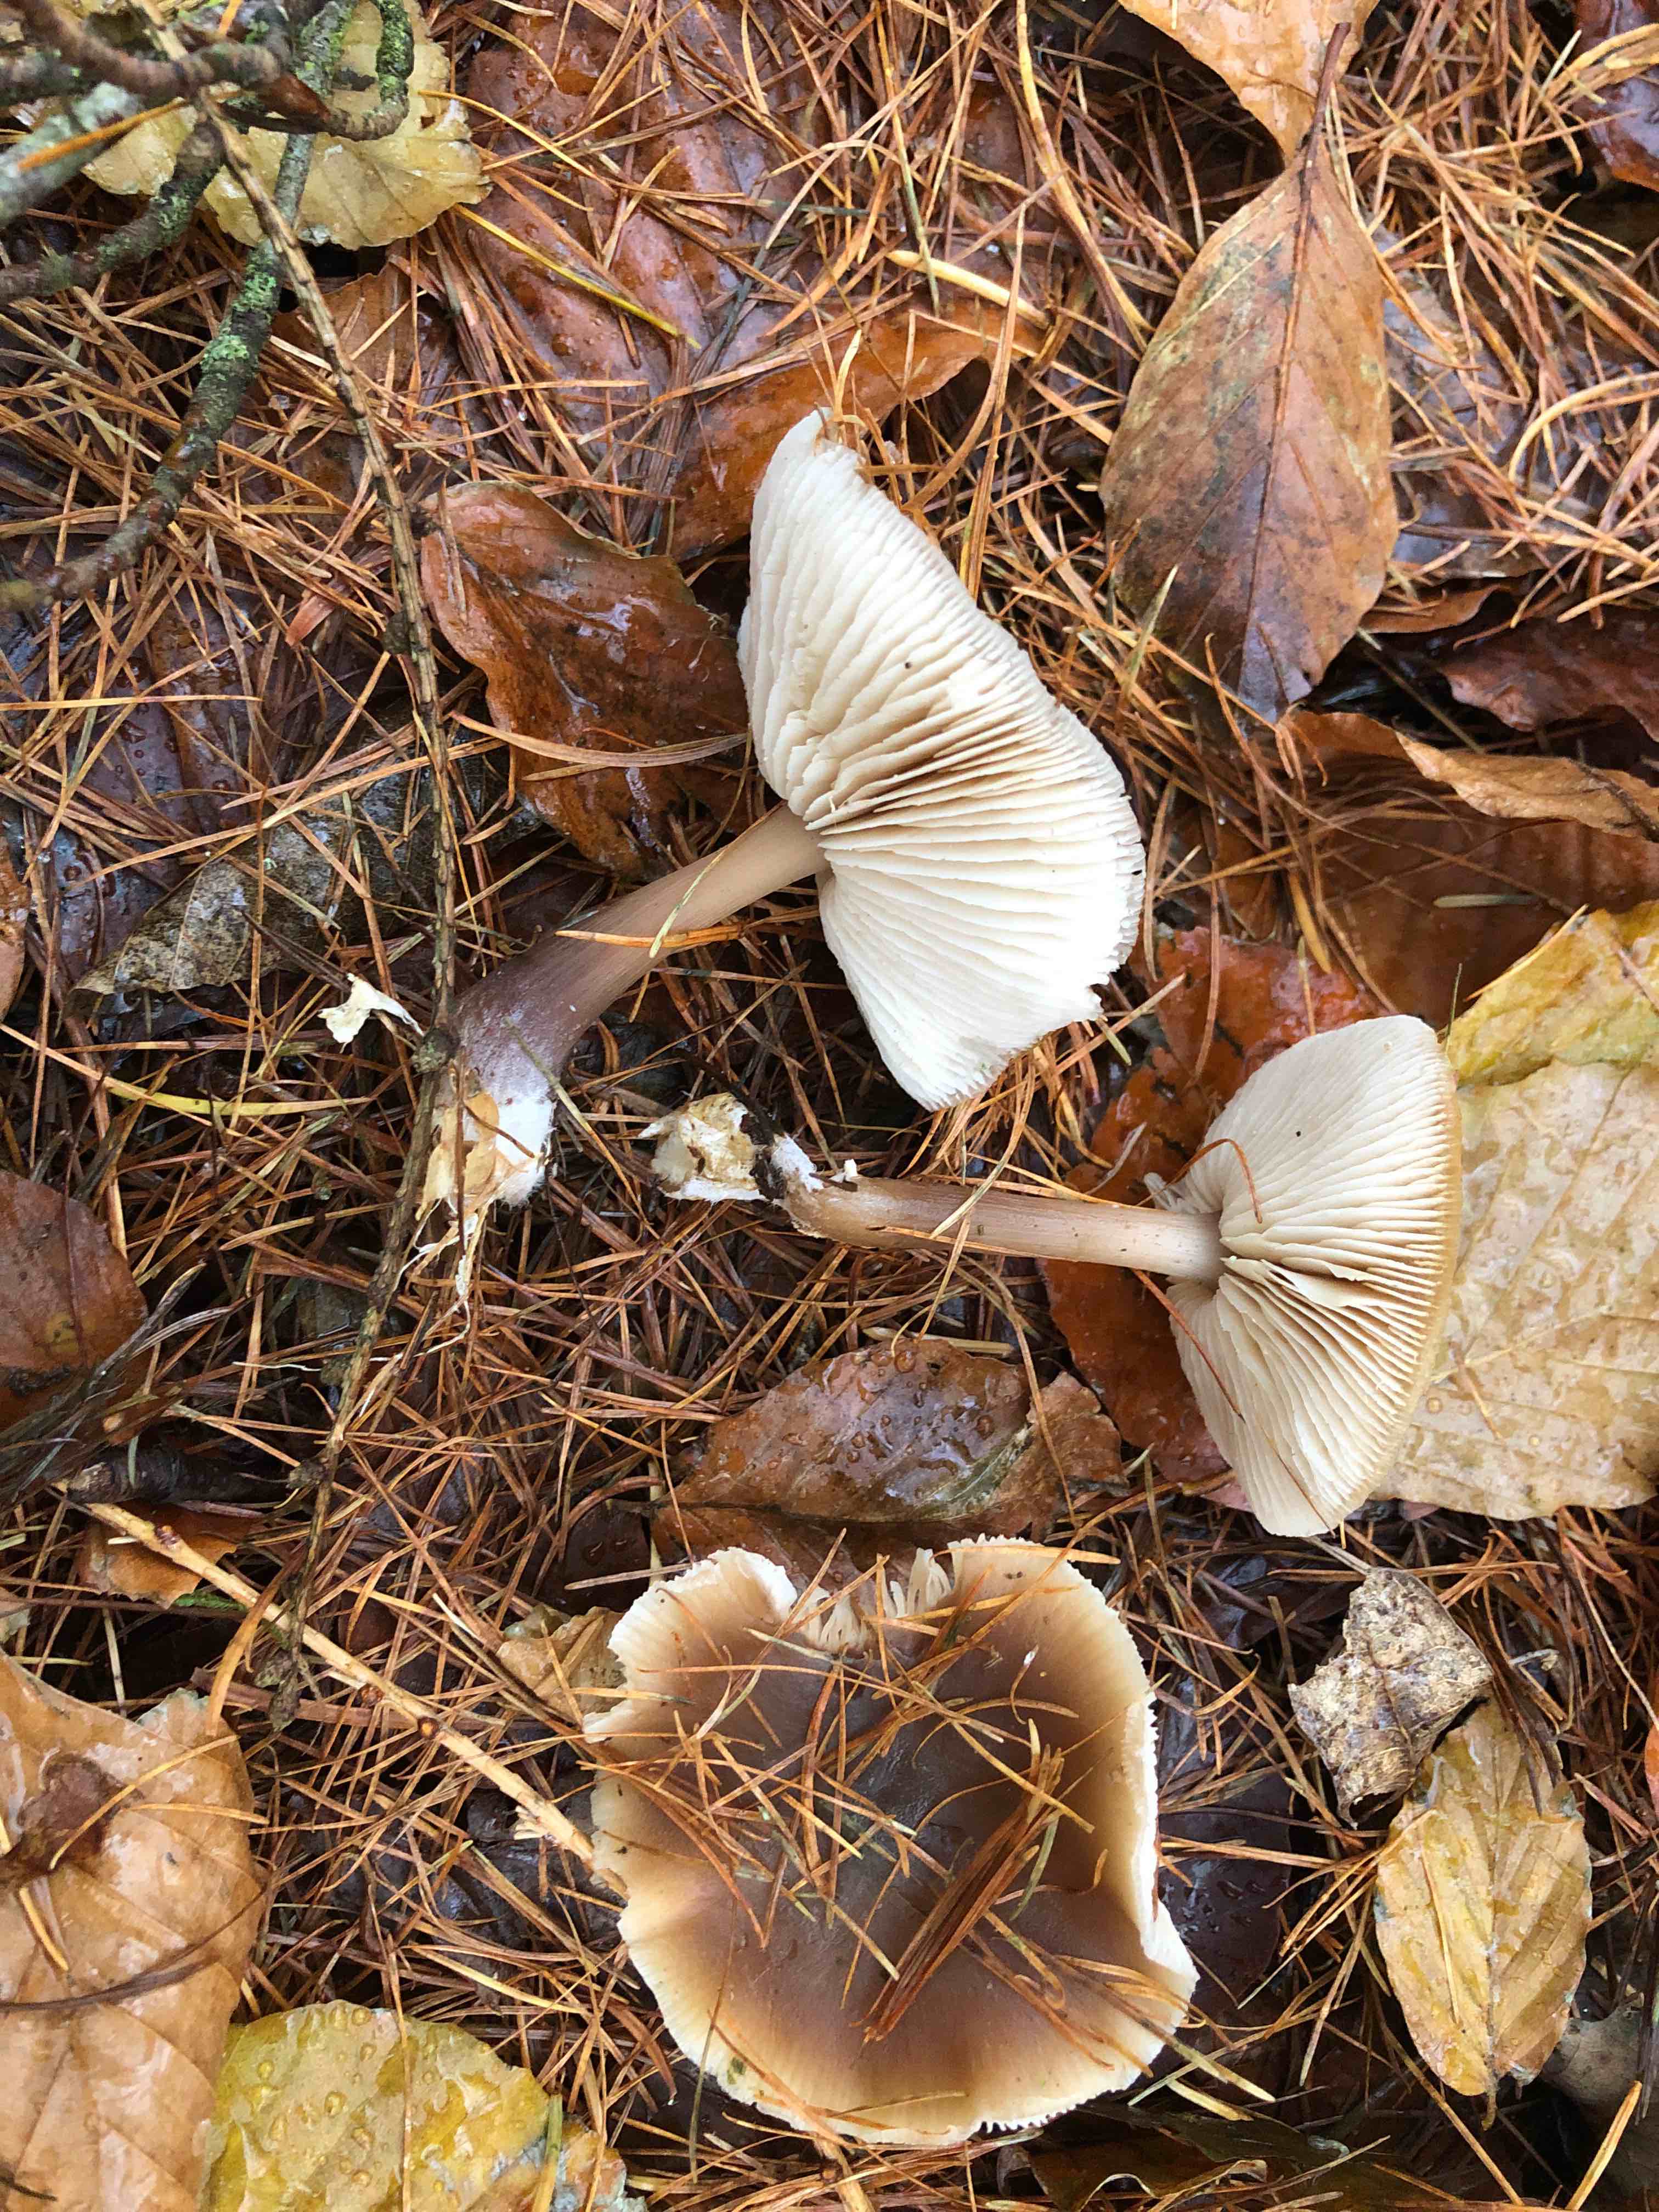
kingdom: Fungi
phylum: Basidiomycota
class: Agaricomycetes
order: Agaricales
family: Omphalotaceae
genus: Rhodocollybia
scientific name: Rhodocollybia asema
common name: horngrå fladhat
